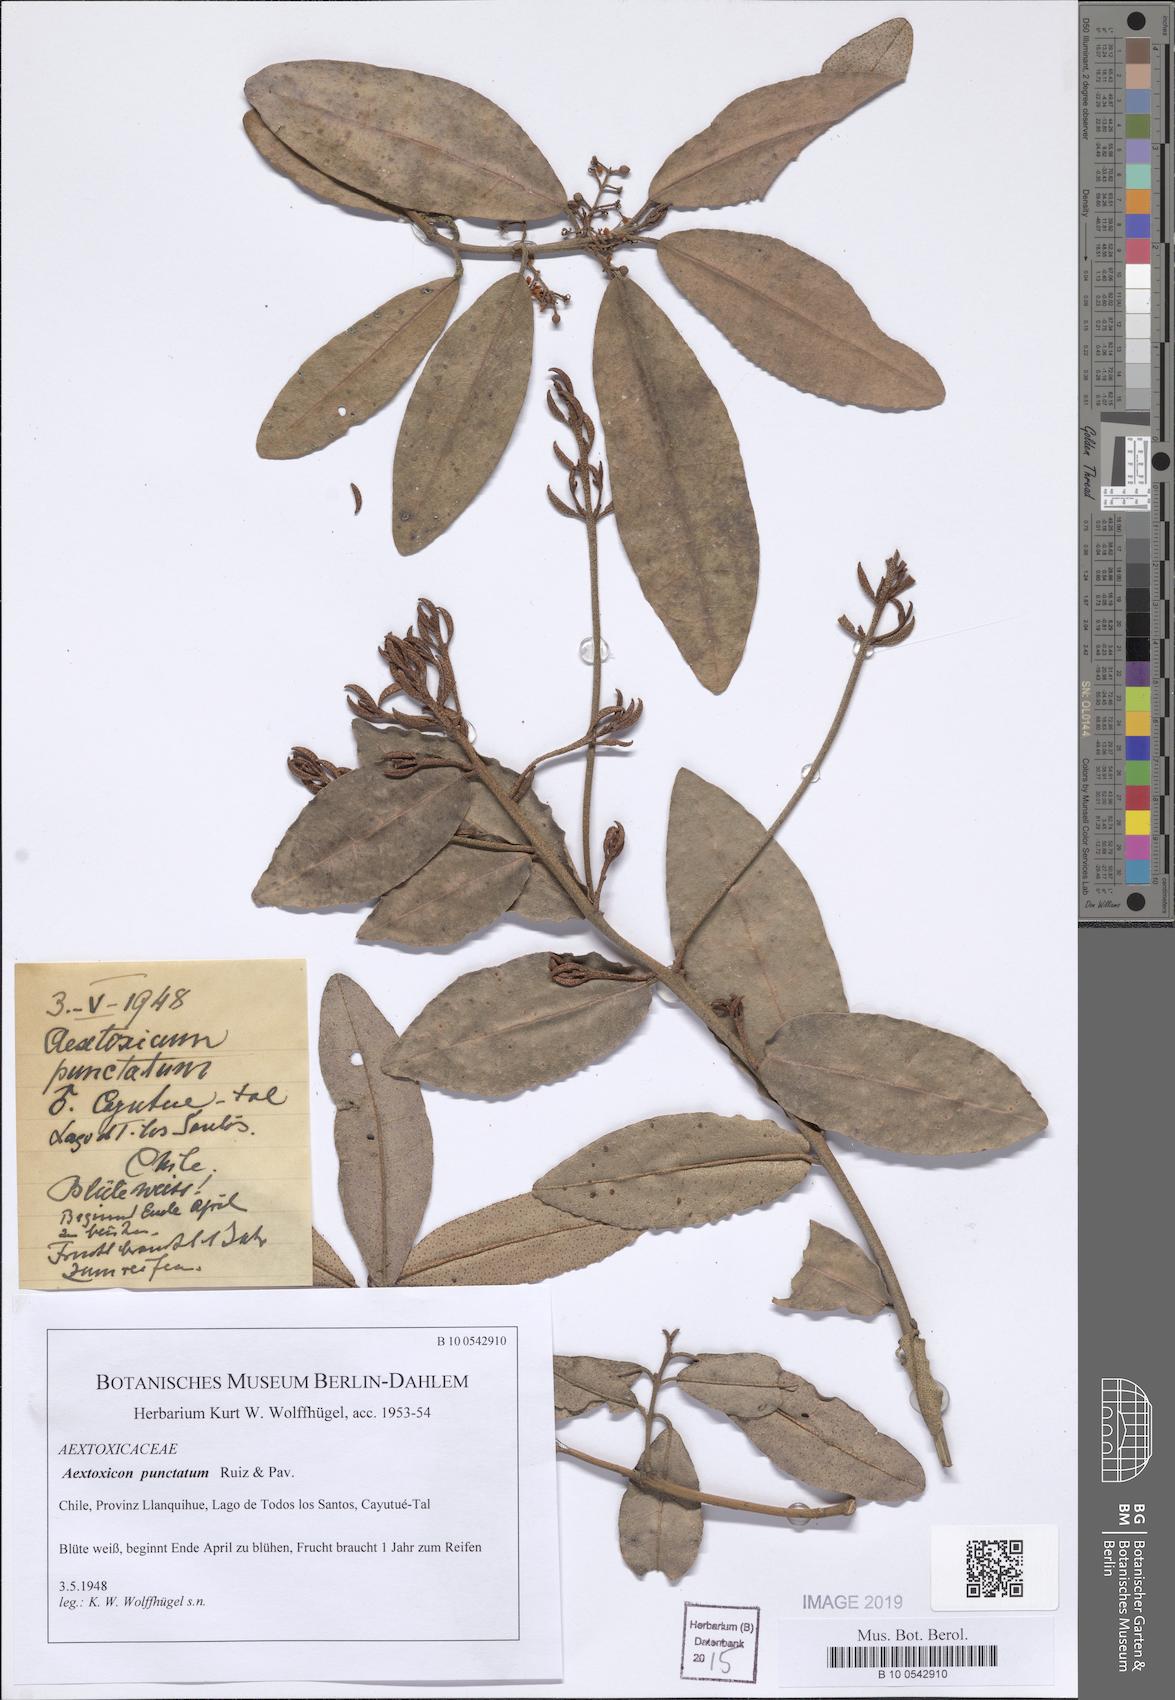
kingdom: Plantae
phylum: Tracheophyta
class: Magnoliopsida
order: Berberidopsidales
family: Aextoxicaceae
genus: Aextoxicon
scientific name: Aextoxicon punctatum
